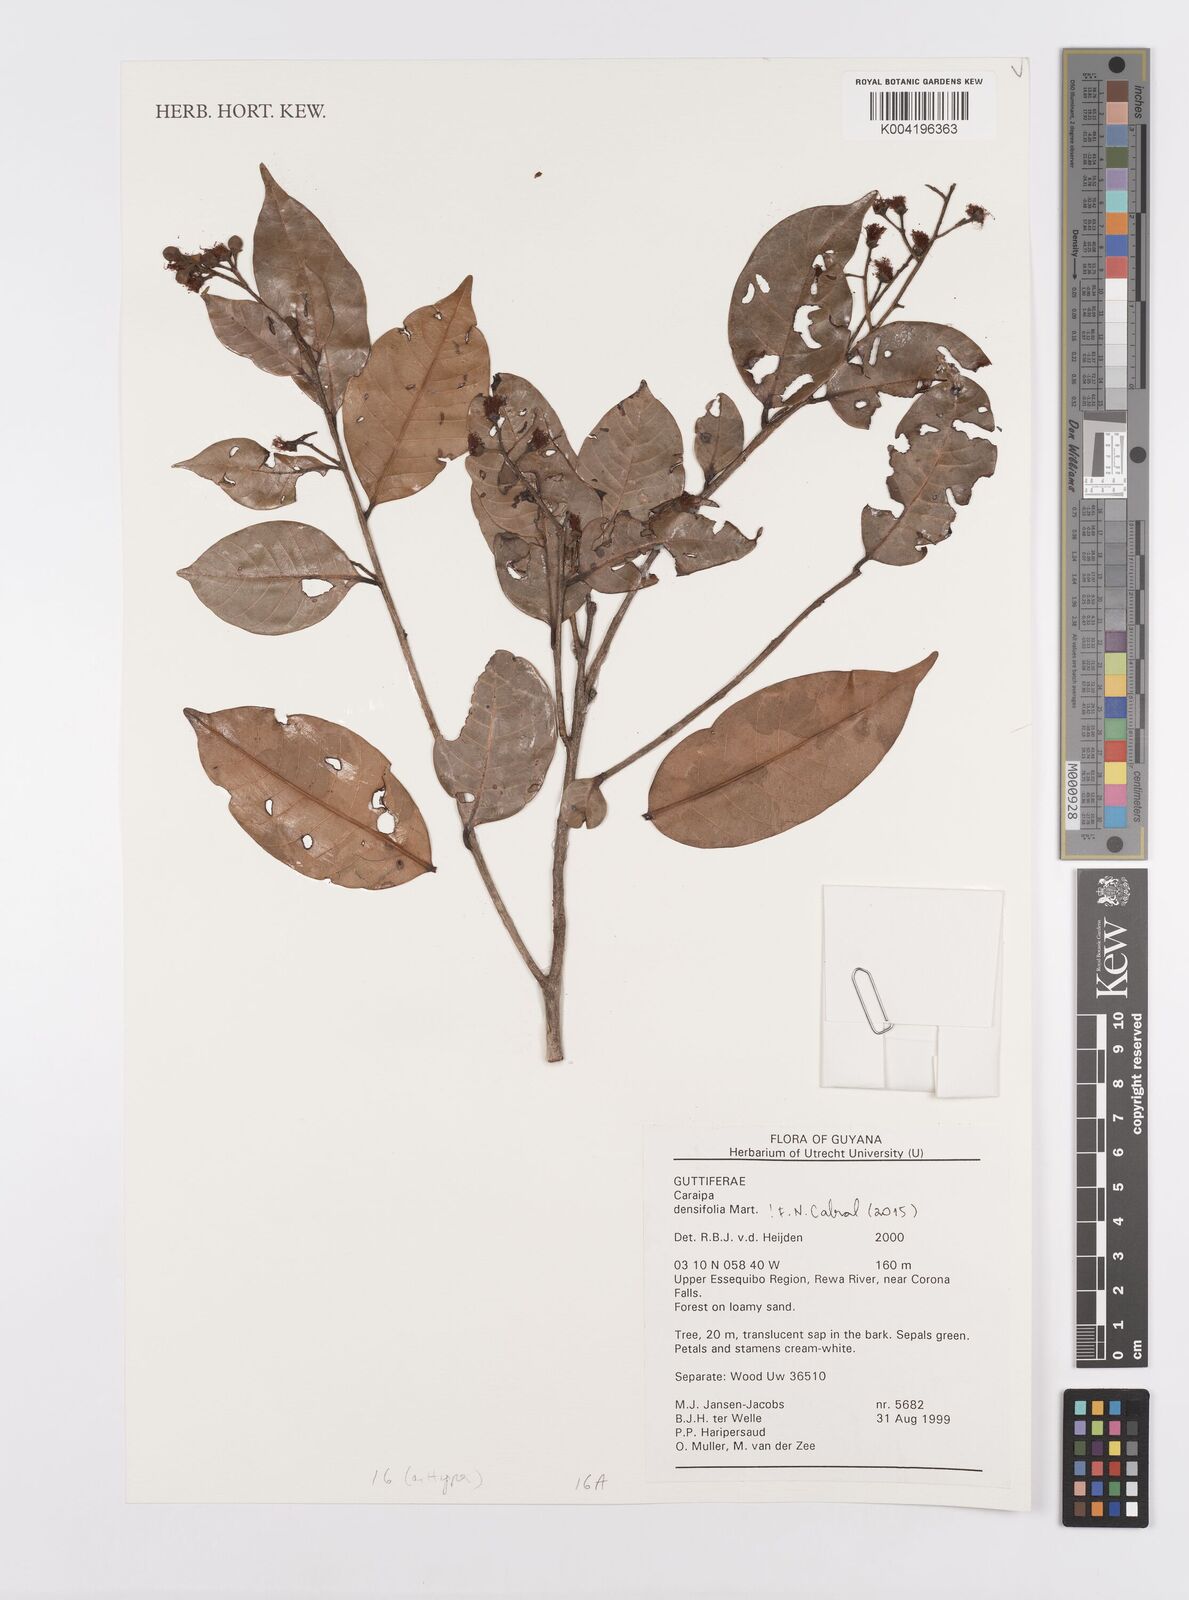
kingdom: Plantae
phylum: Tracheophyta
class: Magnoliopsida
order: Malpighiales
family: Calophyllaceae
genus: Caraipa
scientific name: Caraipa densifolia
